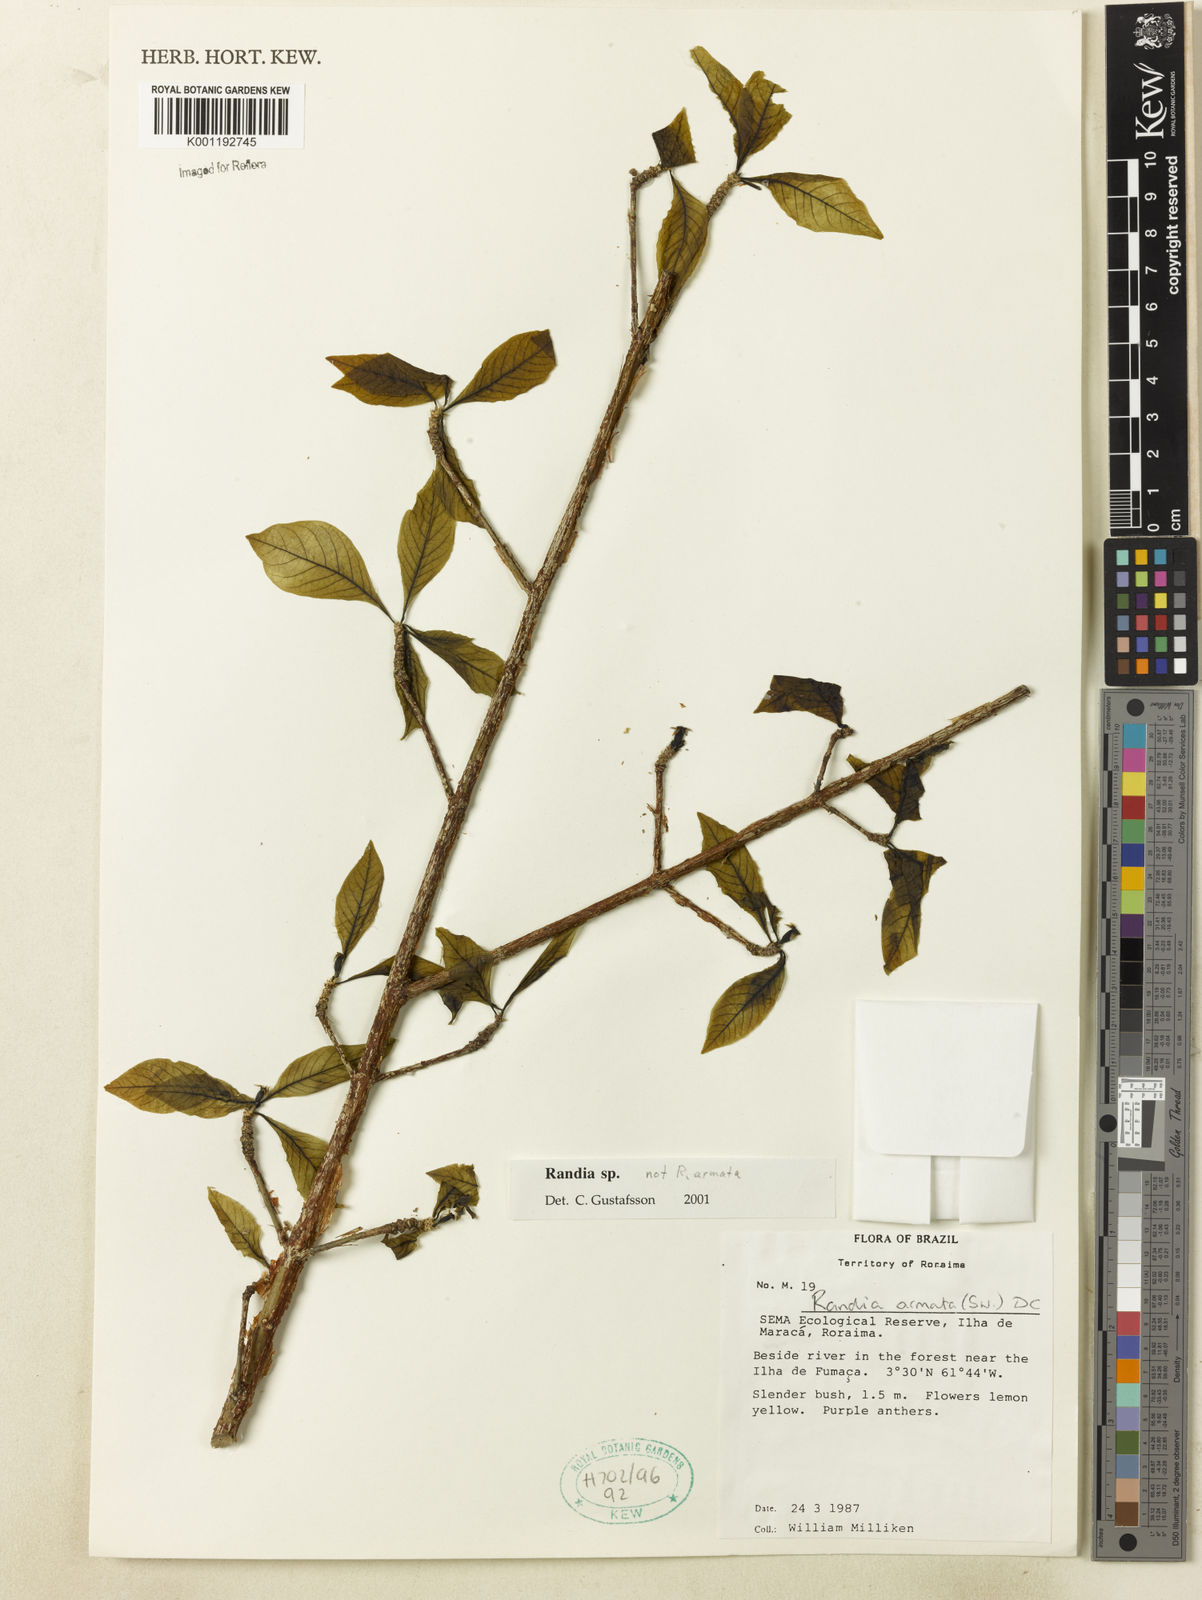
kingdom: Plantae
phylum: Tracheophyta
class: Magnoliopsida
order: Gentianales
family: Rubiaceae
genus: Randia
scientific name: Randia
